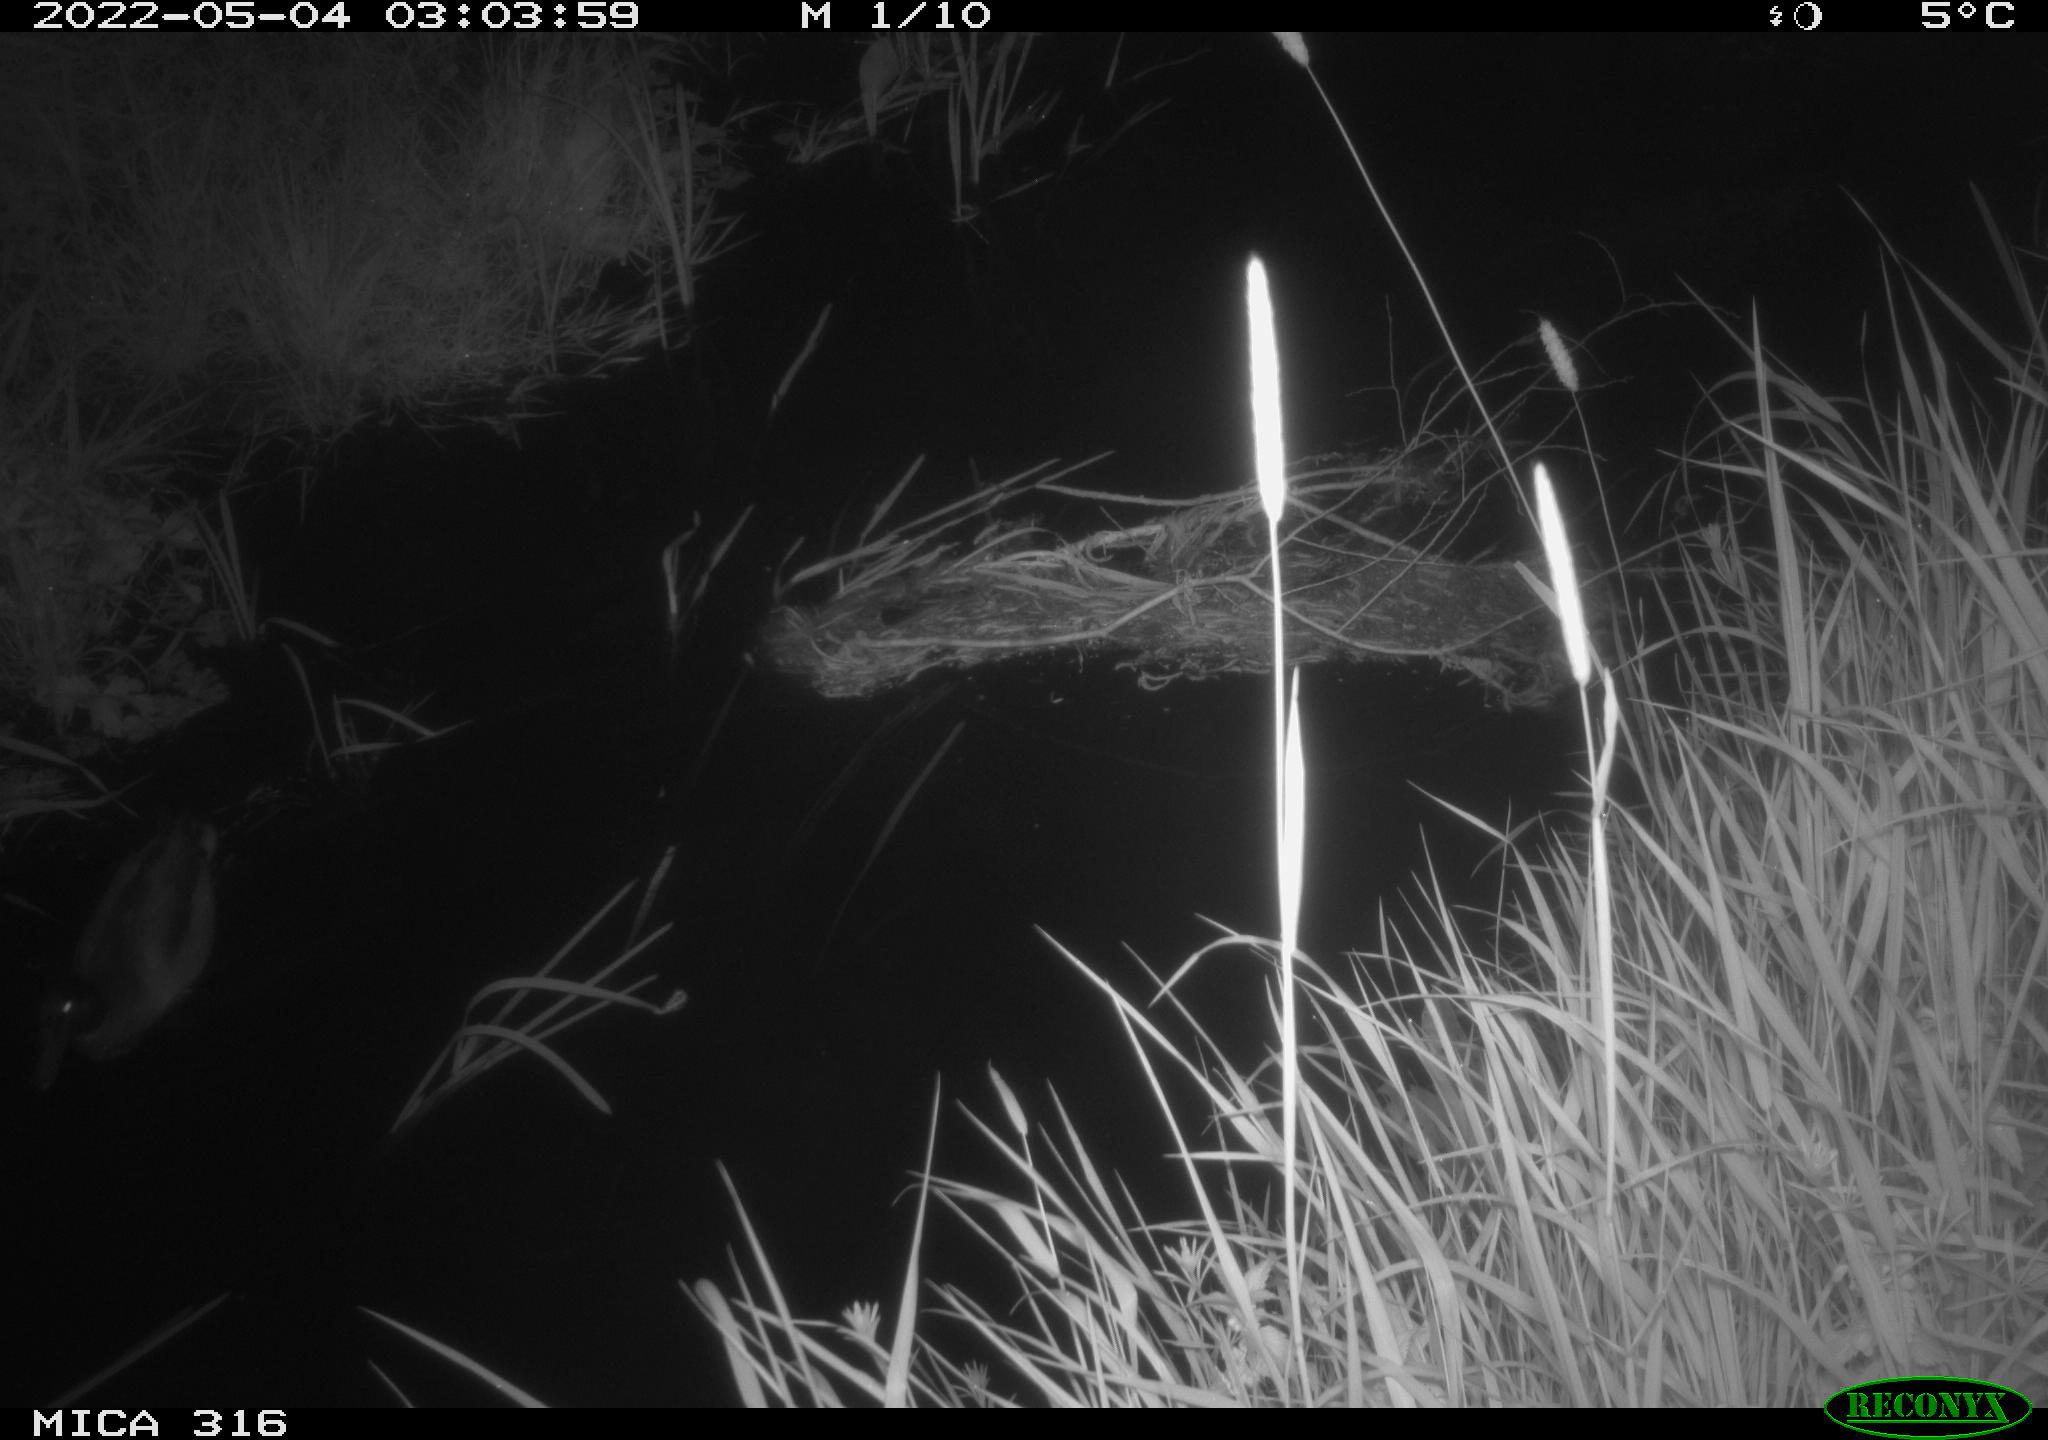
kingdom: Animalia
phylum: Chordata
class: Aves
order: Anseriformes
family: Anatidae
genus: Anas
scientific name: Anas platyrhynchos
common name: Mallard
